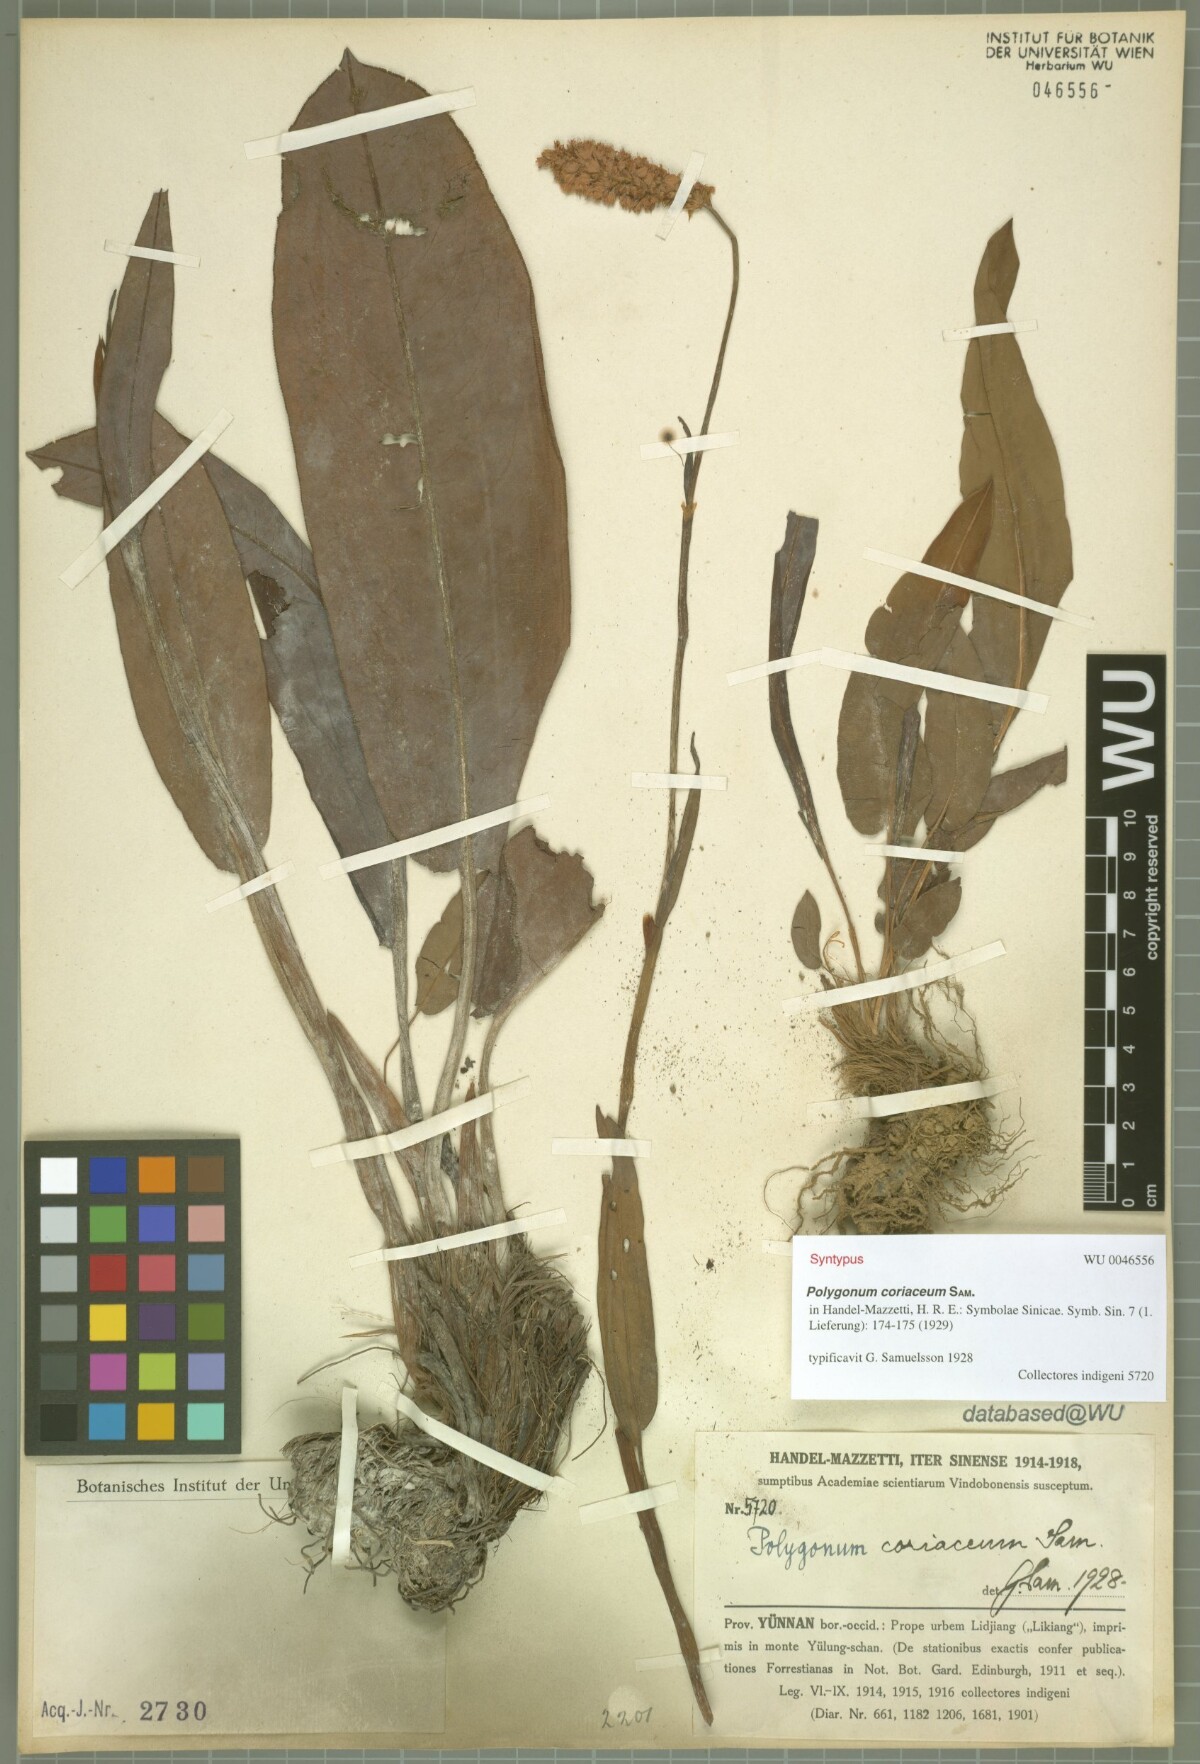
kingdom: Plantae
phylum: Tracheophyta
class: Magnoliopsida
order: Caryophyllales
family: Polygonaceae
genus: Bistorta
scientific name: Bistorta coriacea
